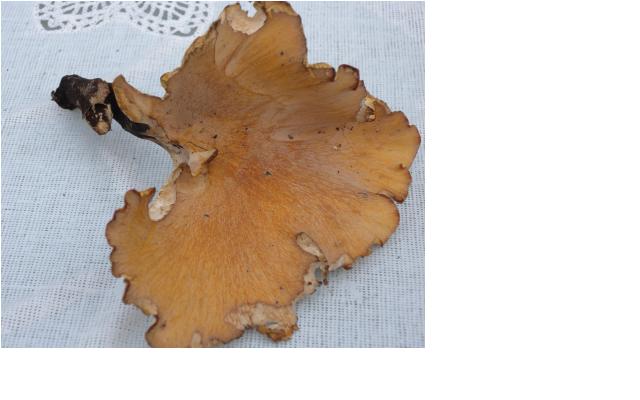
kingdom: Fungi
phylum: Basidiomycota
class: Agaricomycetes
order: Polyporales
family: Polyporaceae
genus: Cerioporus
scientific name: Cerioporus varius
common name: foranderlig stilkporesvamp
